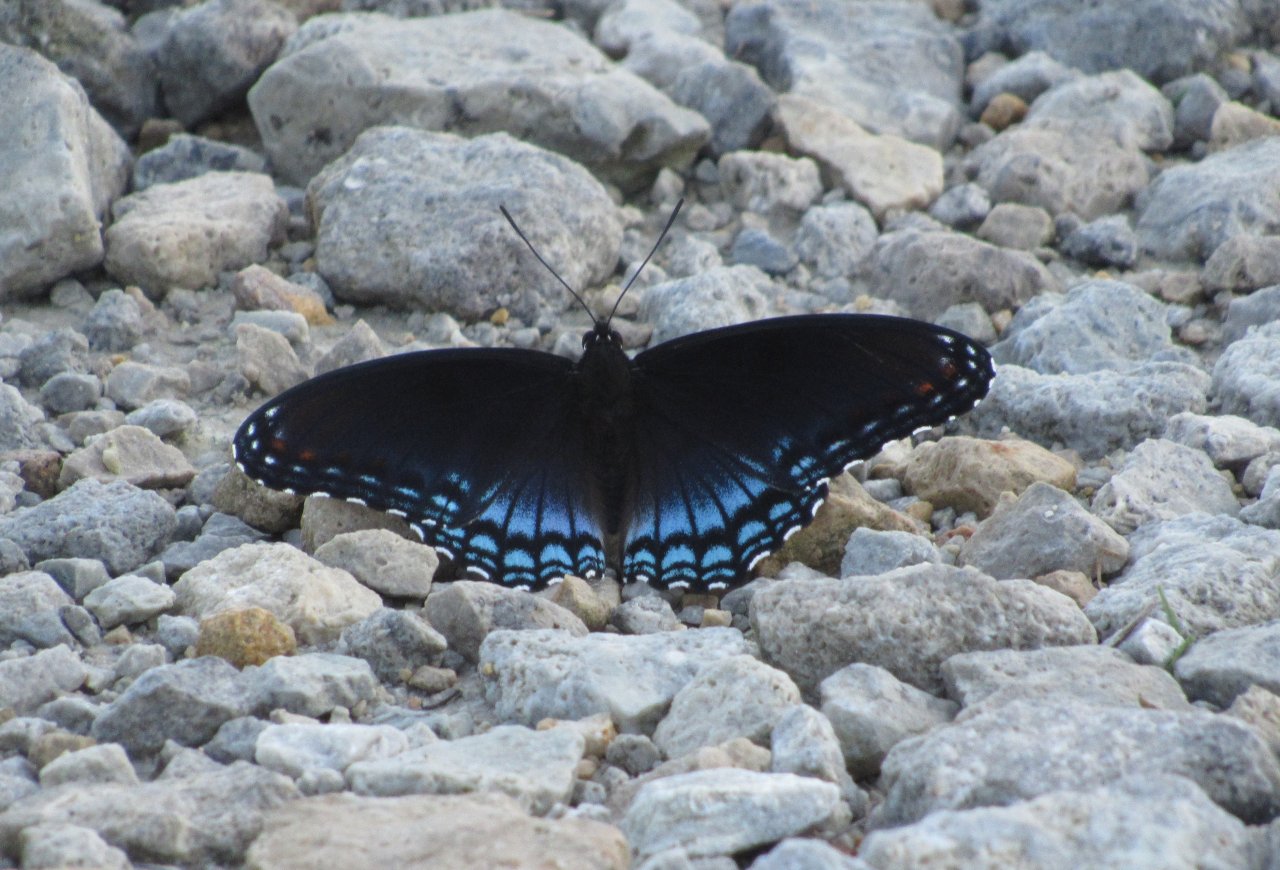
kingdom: Animalia
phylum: Arthropoda
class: Insecta
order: Lepidoptera
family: Nymphalidae
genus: Limenitis
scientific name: Limenitis astyanax
